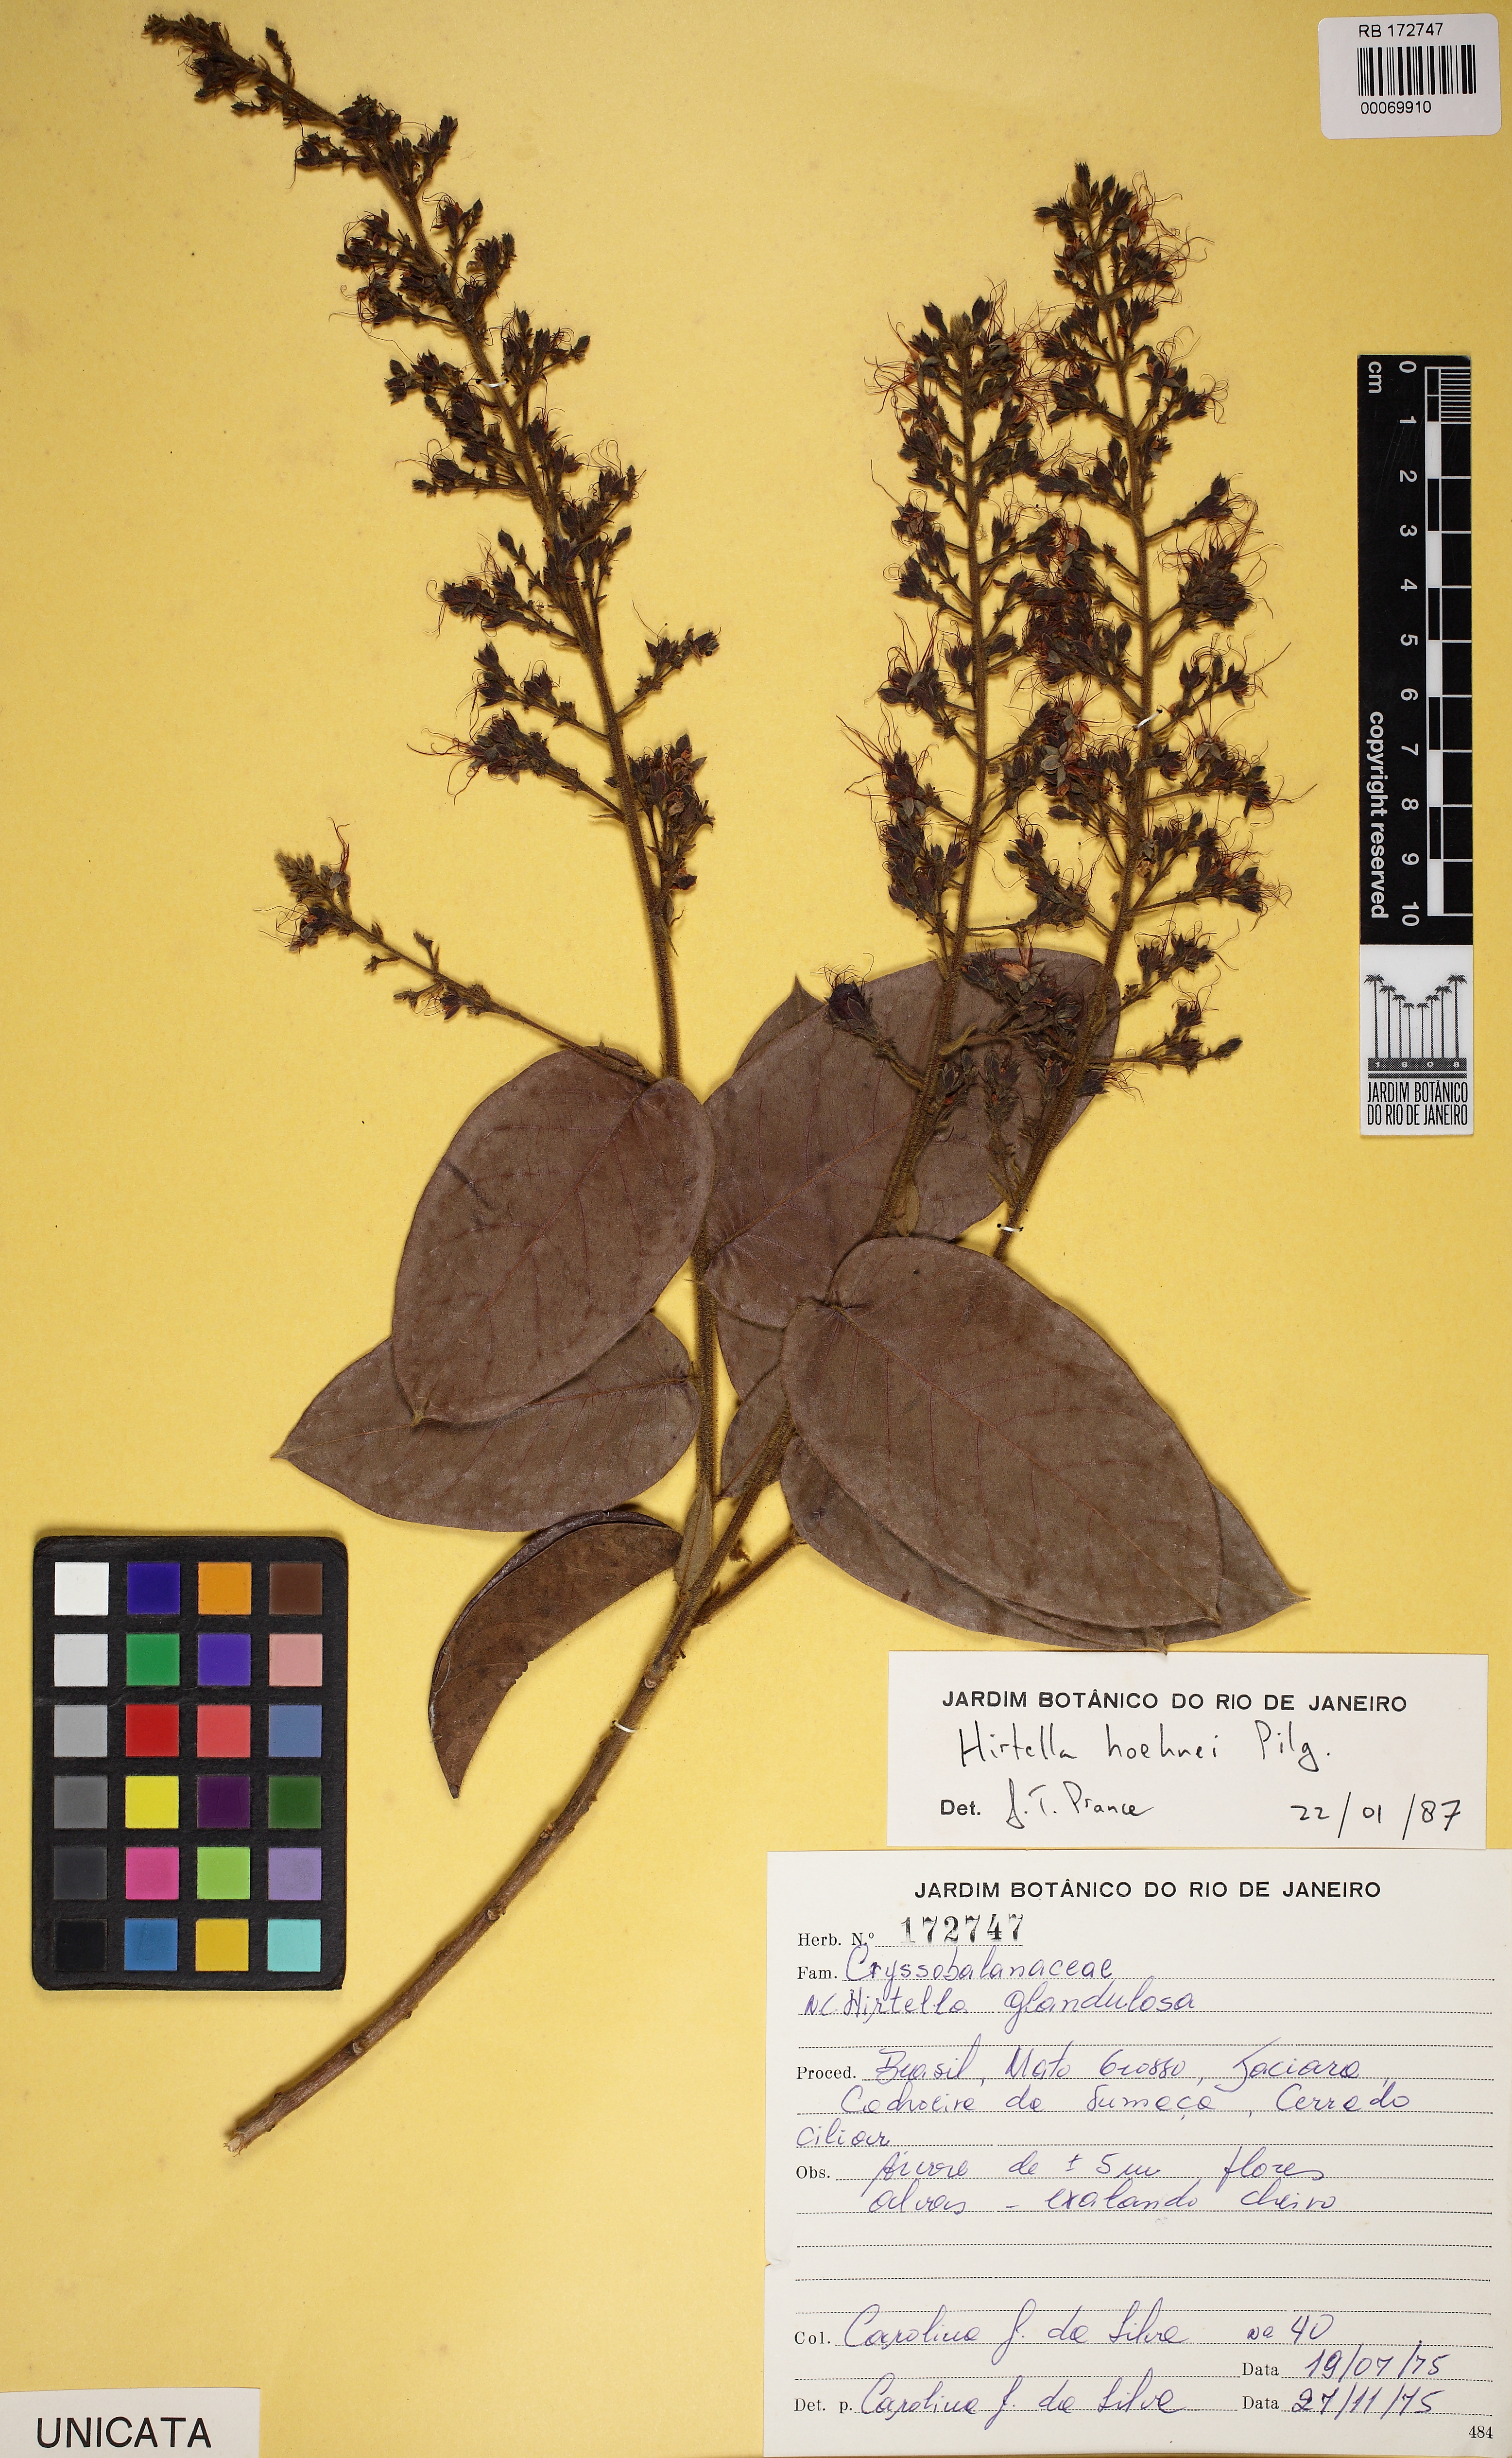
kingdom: Plantae
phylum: Tracheophyta
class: Magnoliopsida
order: Malpighiales
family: Chrysobalanaceae
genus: Hirtella
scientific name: Hirtella hoehnei
